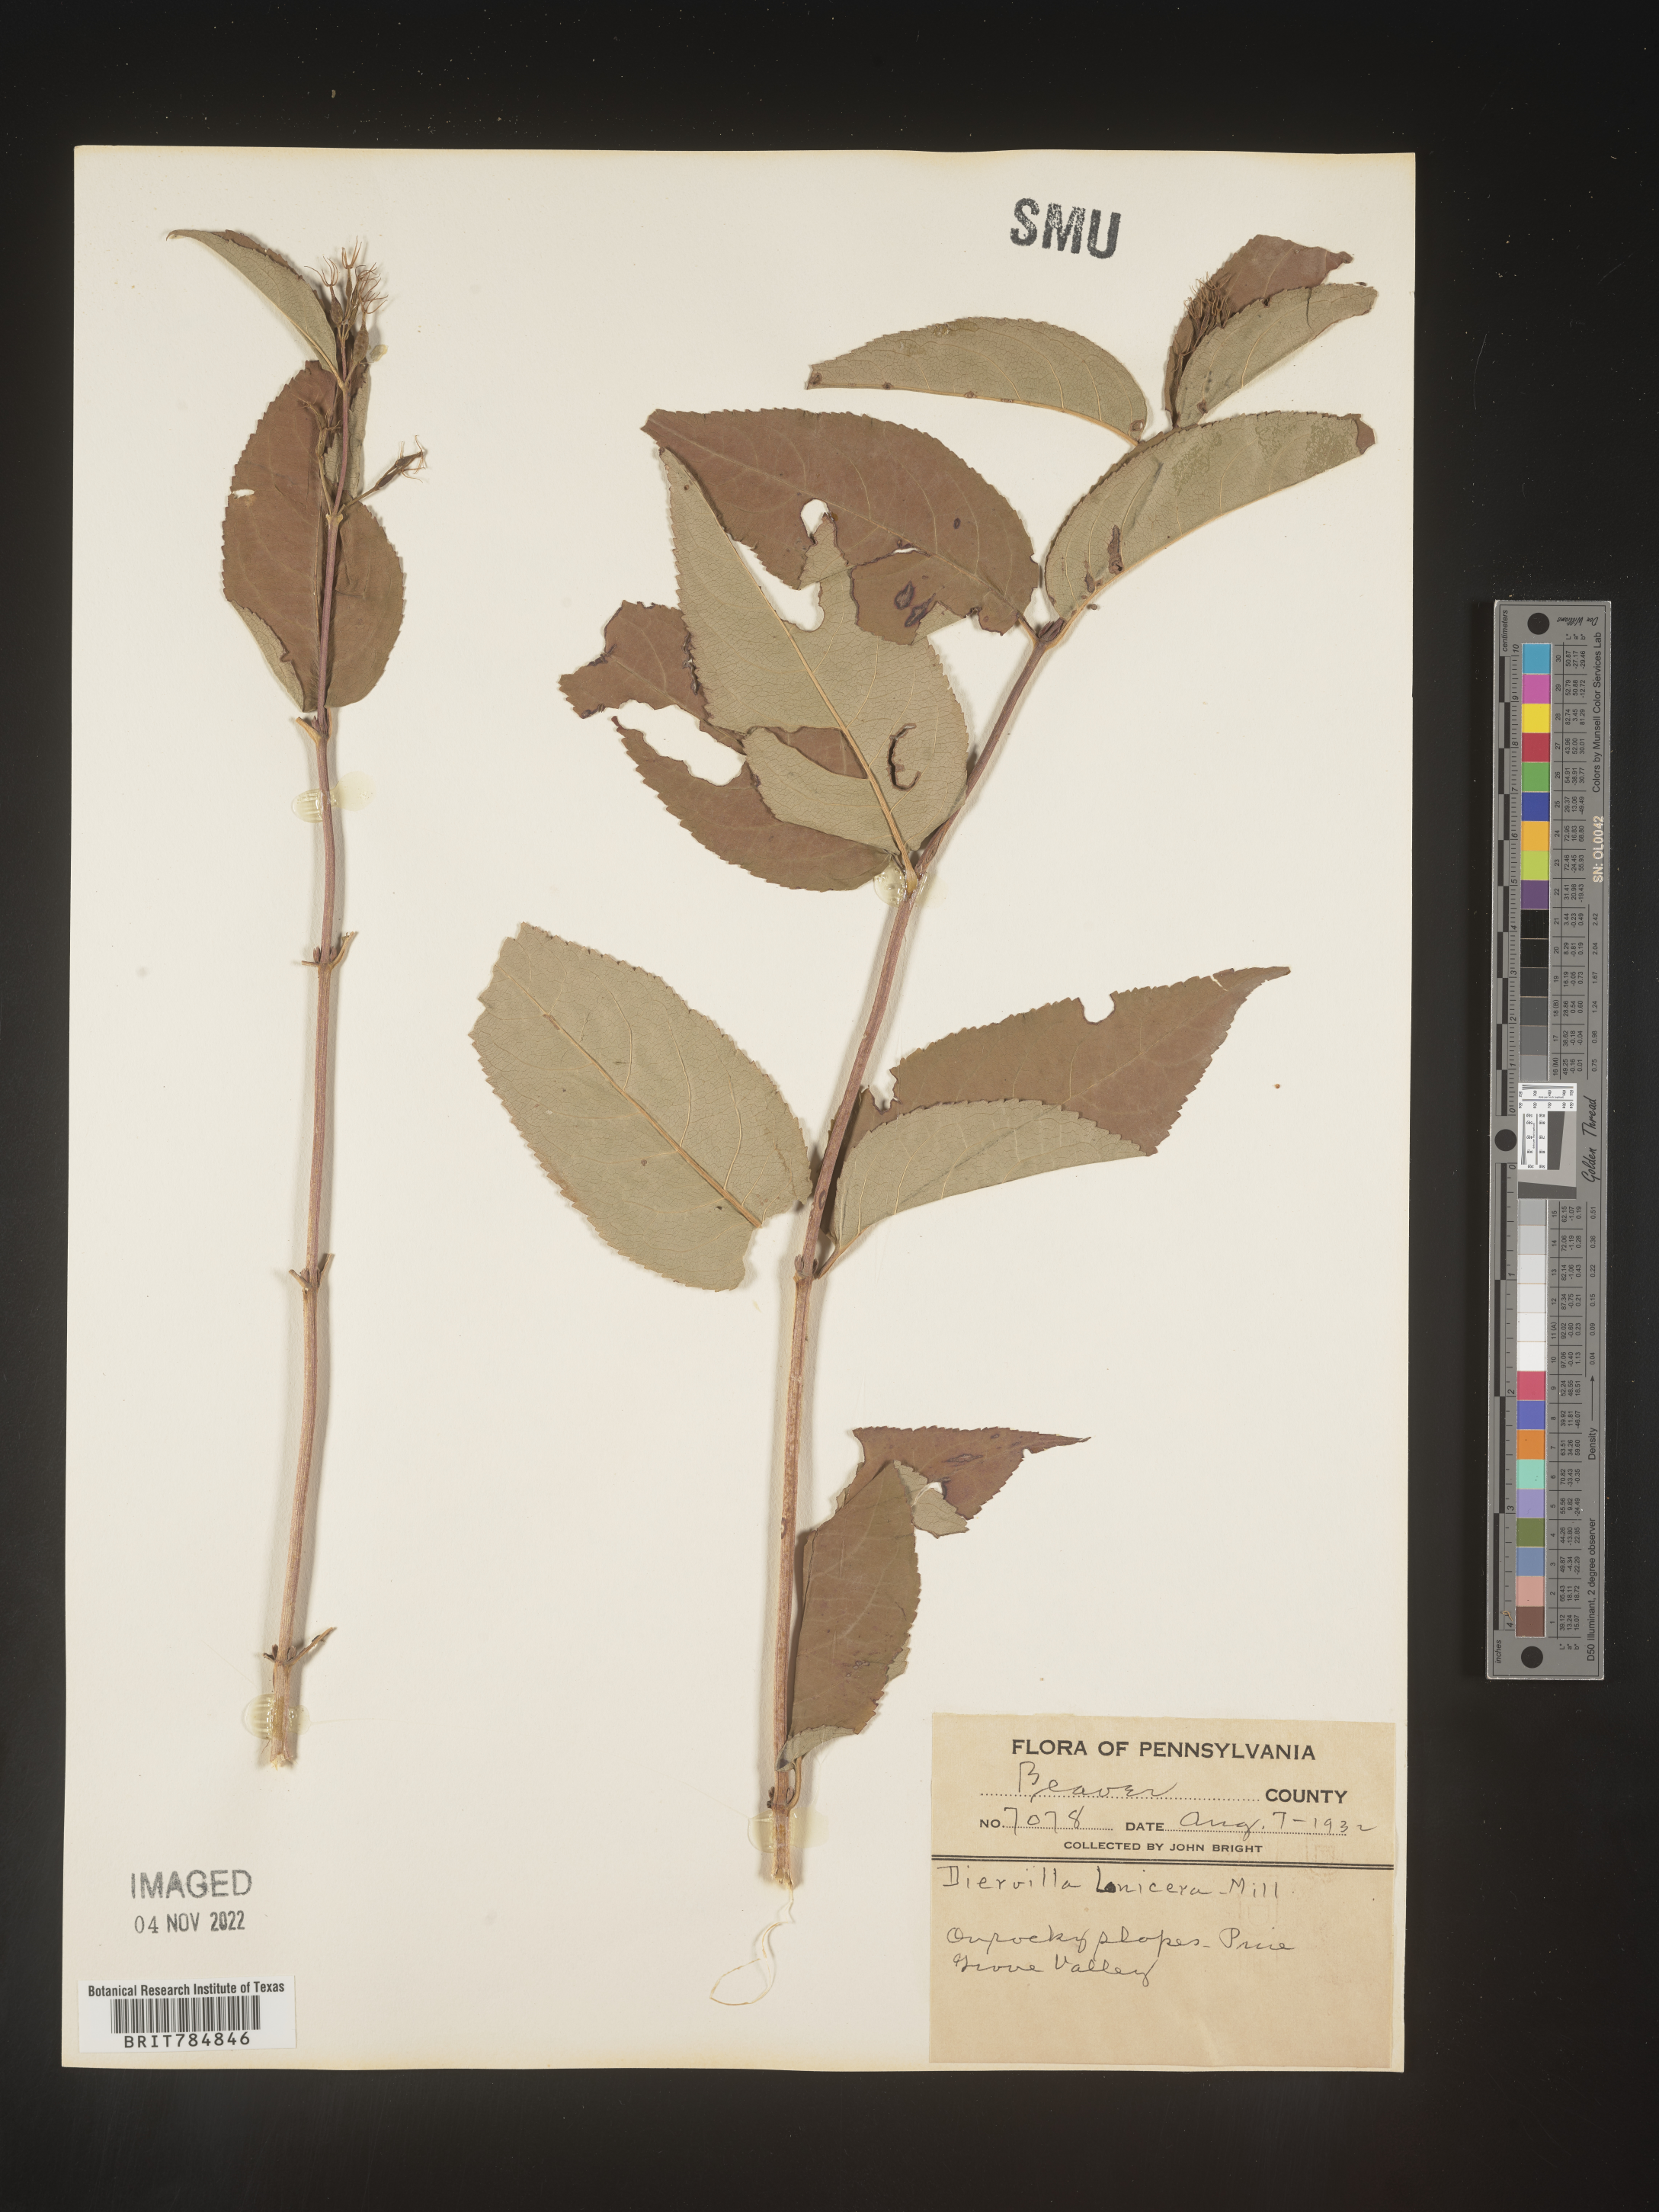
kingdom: Plantae
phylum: Tracheophyta
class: Magnoliopsida
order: Dipsacales
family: Caprifoliaceae
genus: Diervilla
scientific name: Diervilla lonicera
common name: Bush-honeysuckle
